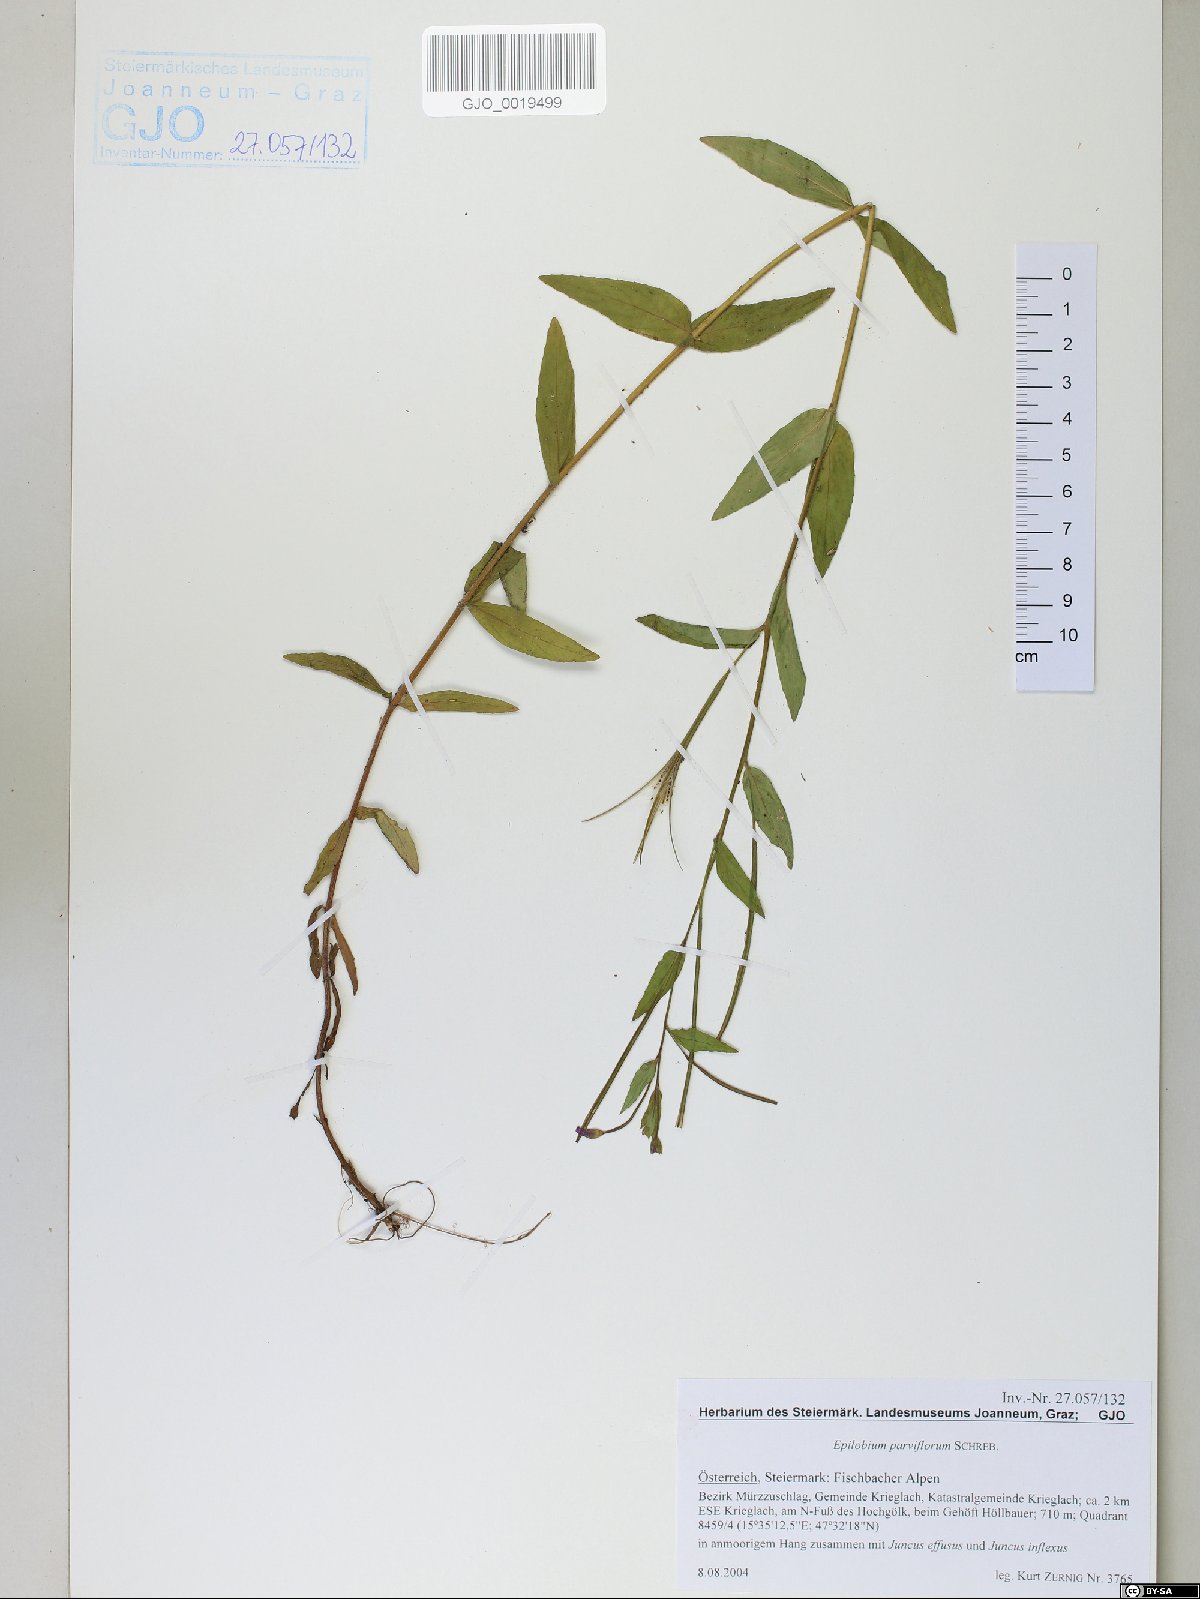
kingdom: Plantae
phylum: Tracheophyta
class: Magnoliopsida
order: Myrtales
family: Onagraceae
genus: Epilobium
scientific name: Epilobium parviflorum
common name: Hoary willowherb
